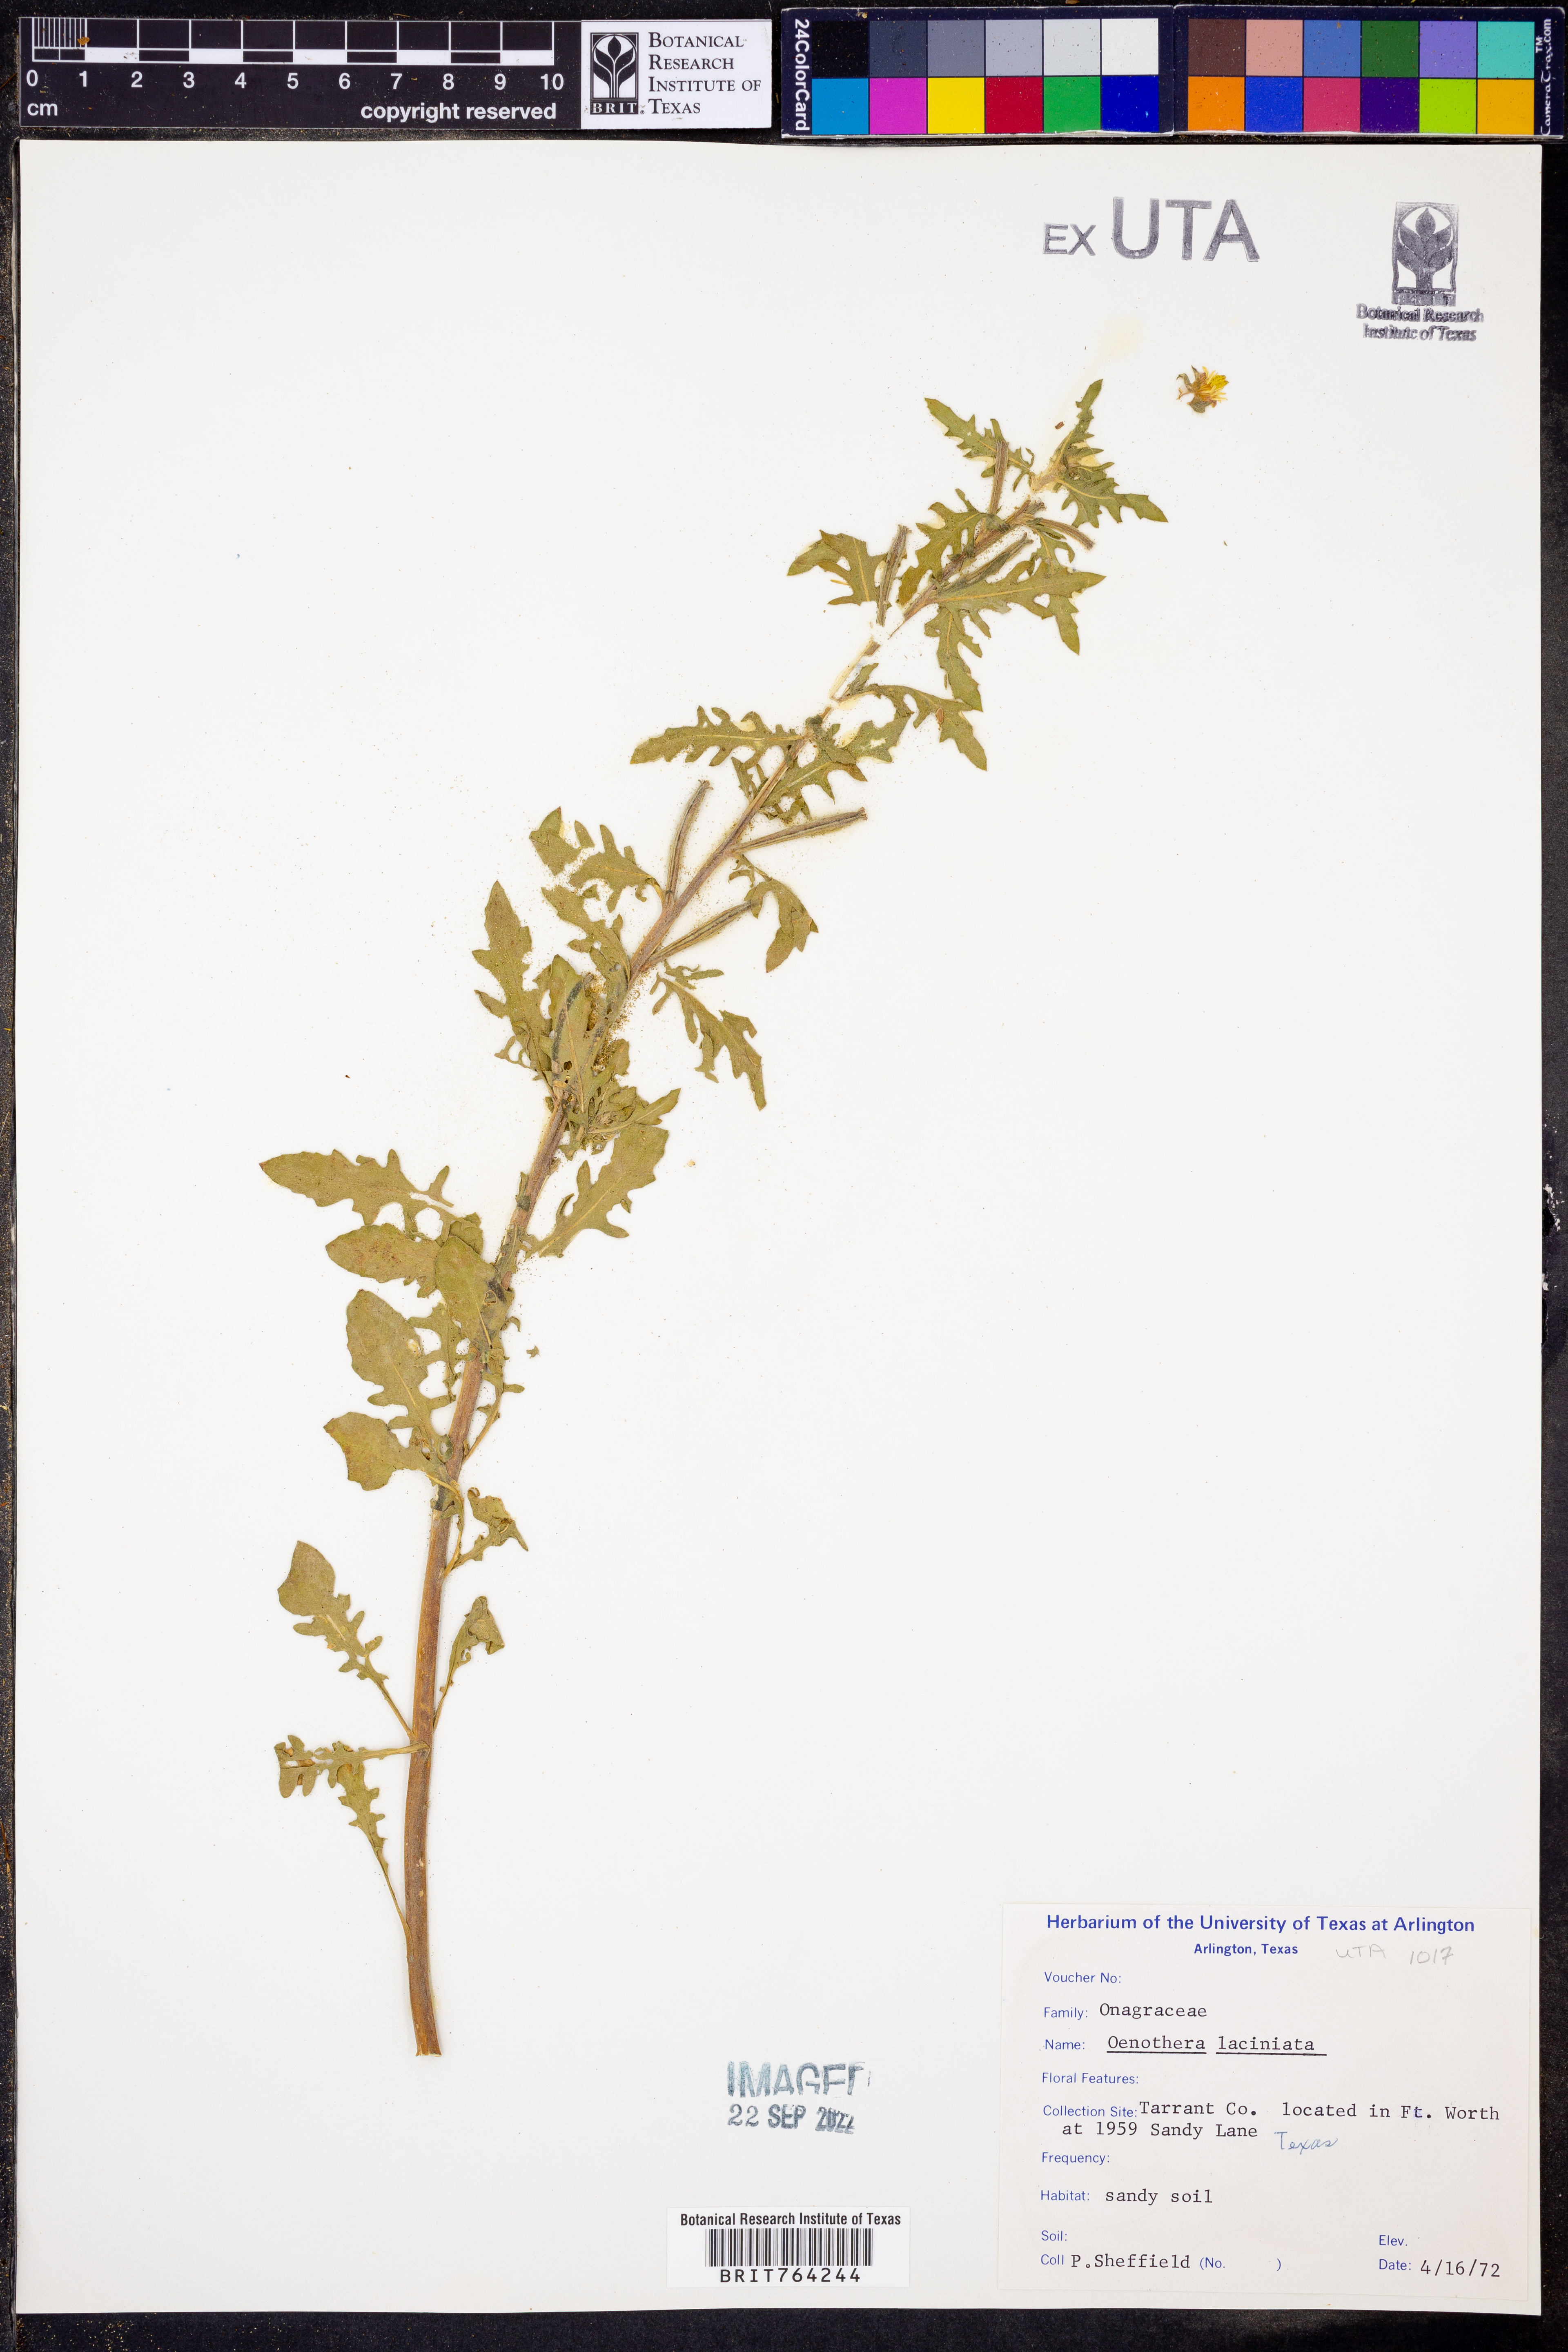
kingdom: Plantae
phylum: Tracheophyta
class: Magnoliopsida
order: Myrtales
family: Onagraceae
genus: Oenothera
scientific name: Oenothera laciniata
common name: Cut-leaved evening-primrose
